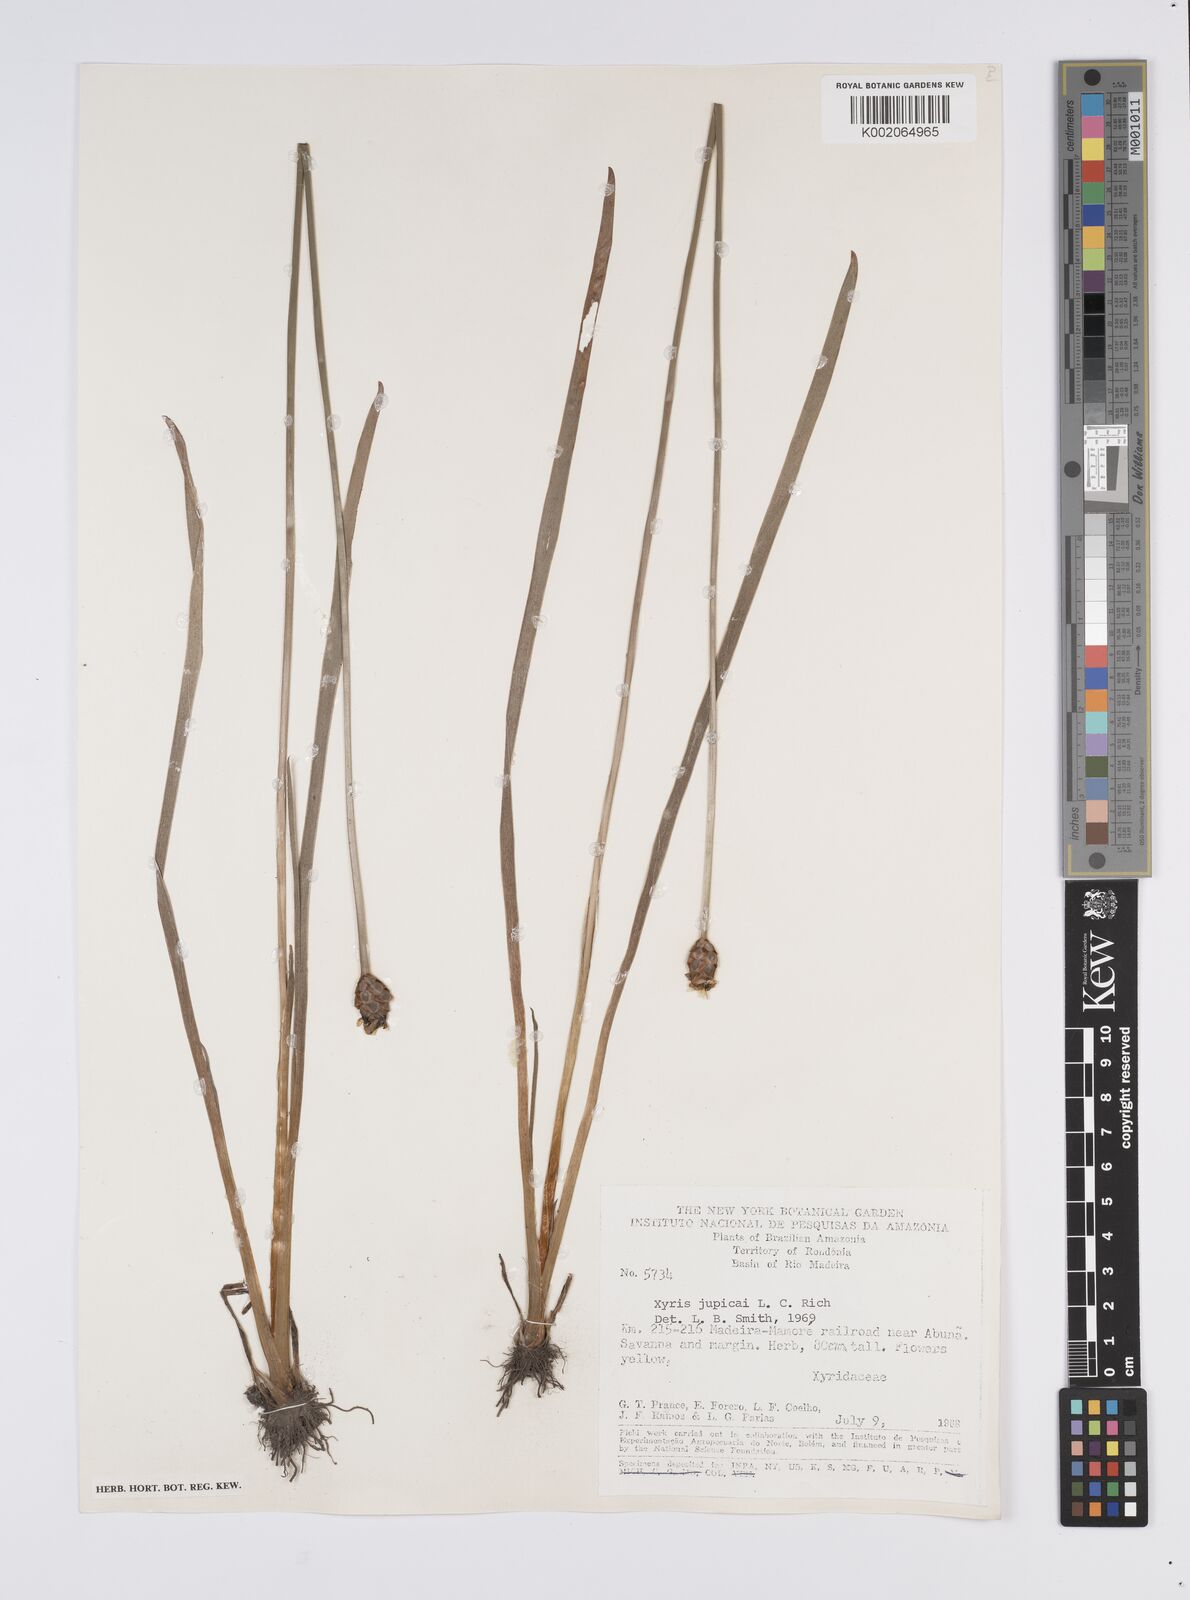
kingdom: Plantae
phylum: Tracheophyta
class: Liliopsida
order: Poales
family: Xyridaceae
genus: Xyris
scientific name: Xyris jupicai
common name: Richard's yelloweyed grass
